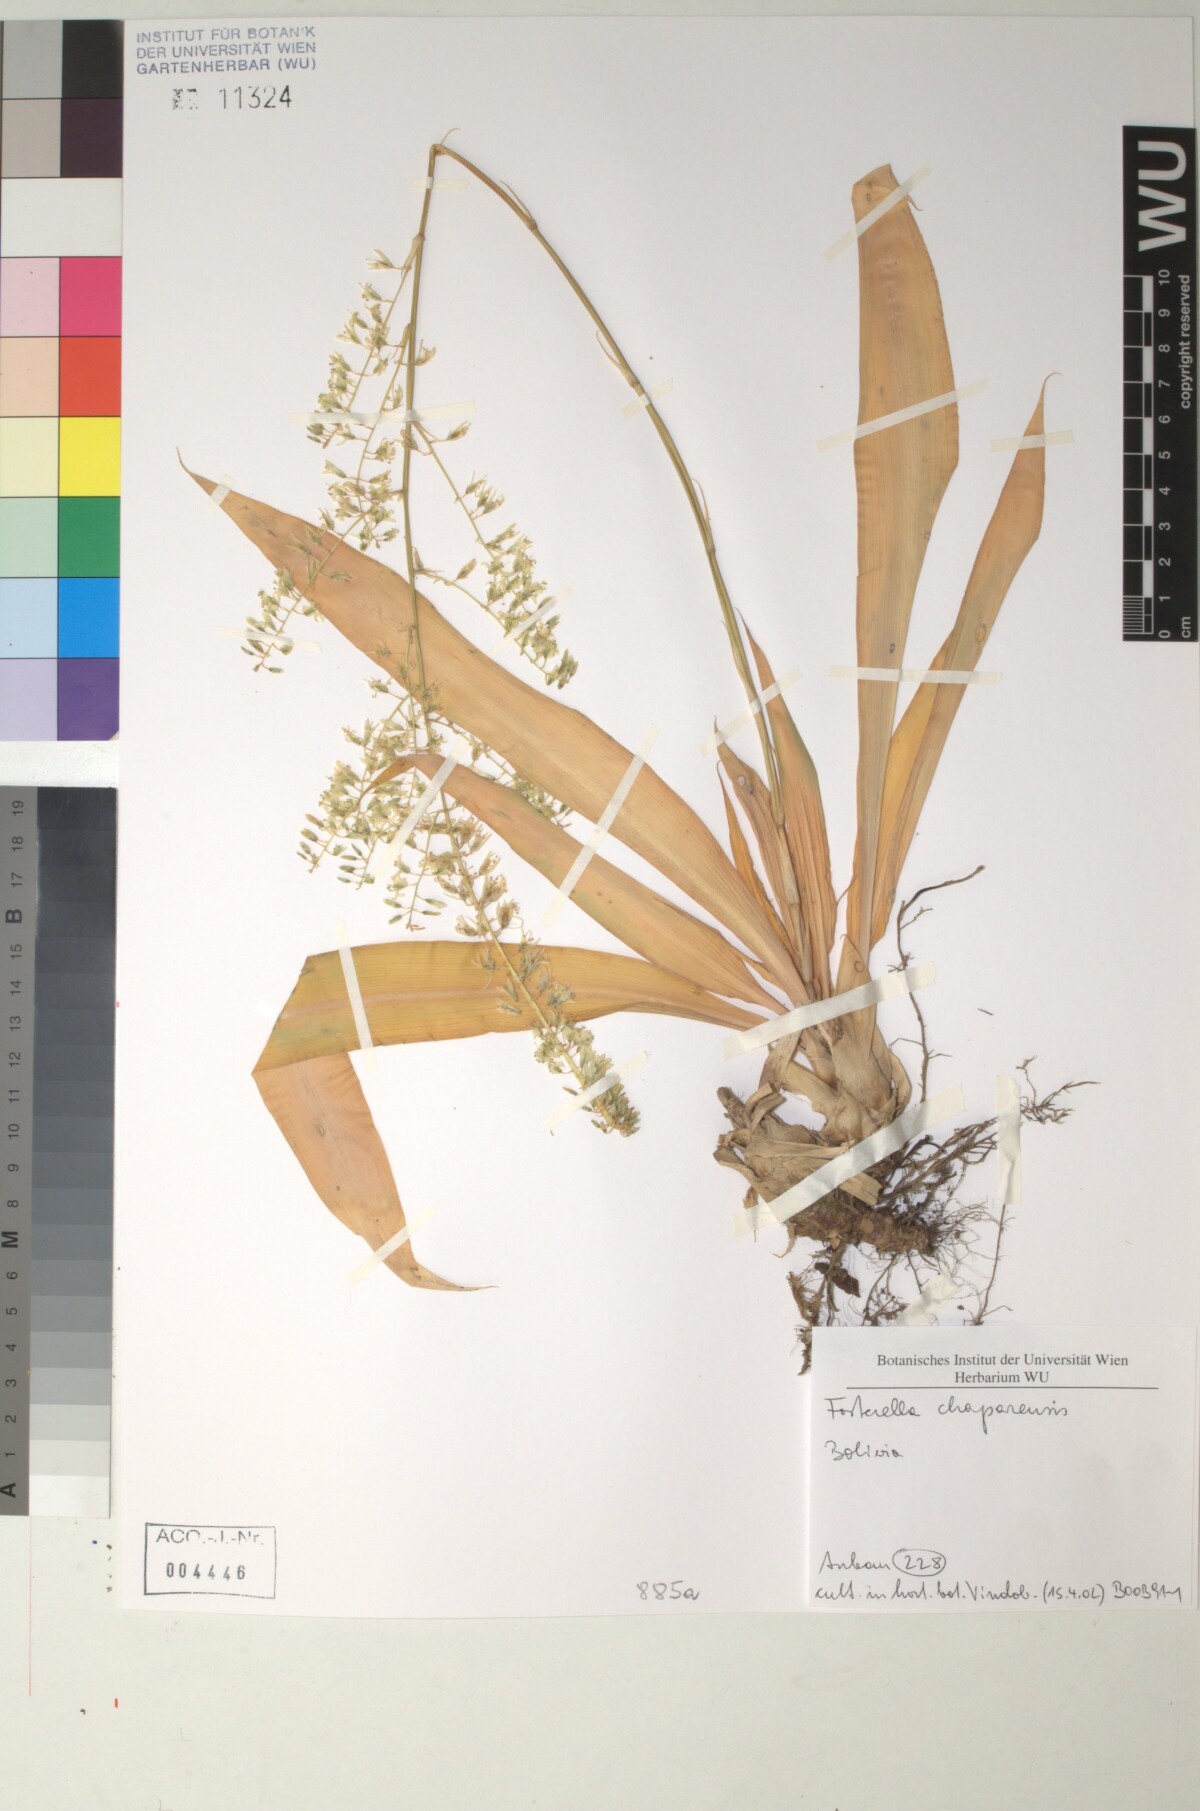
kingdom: Plantae
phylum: Tracheophyta
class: Liliopsida
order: Poales
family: Bromeliaceae
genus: Fosterella
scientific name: Fosterella chaparensis
